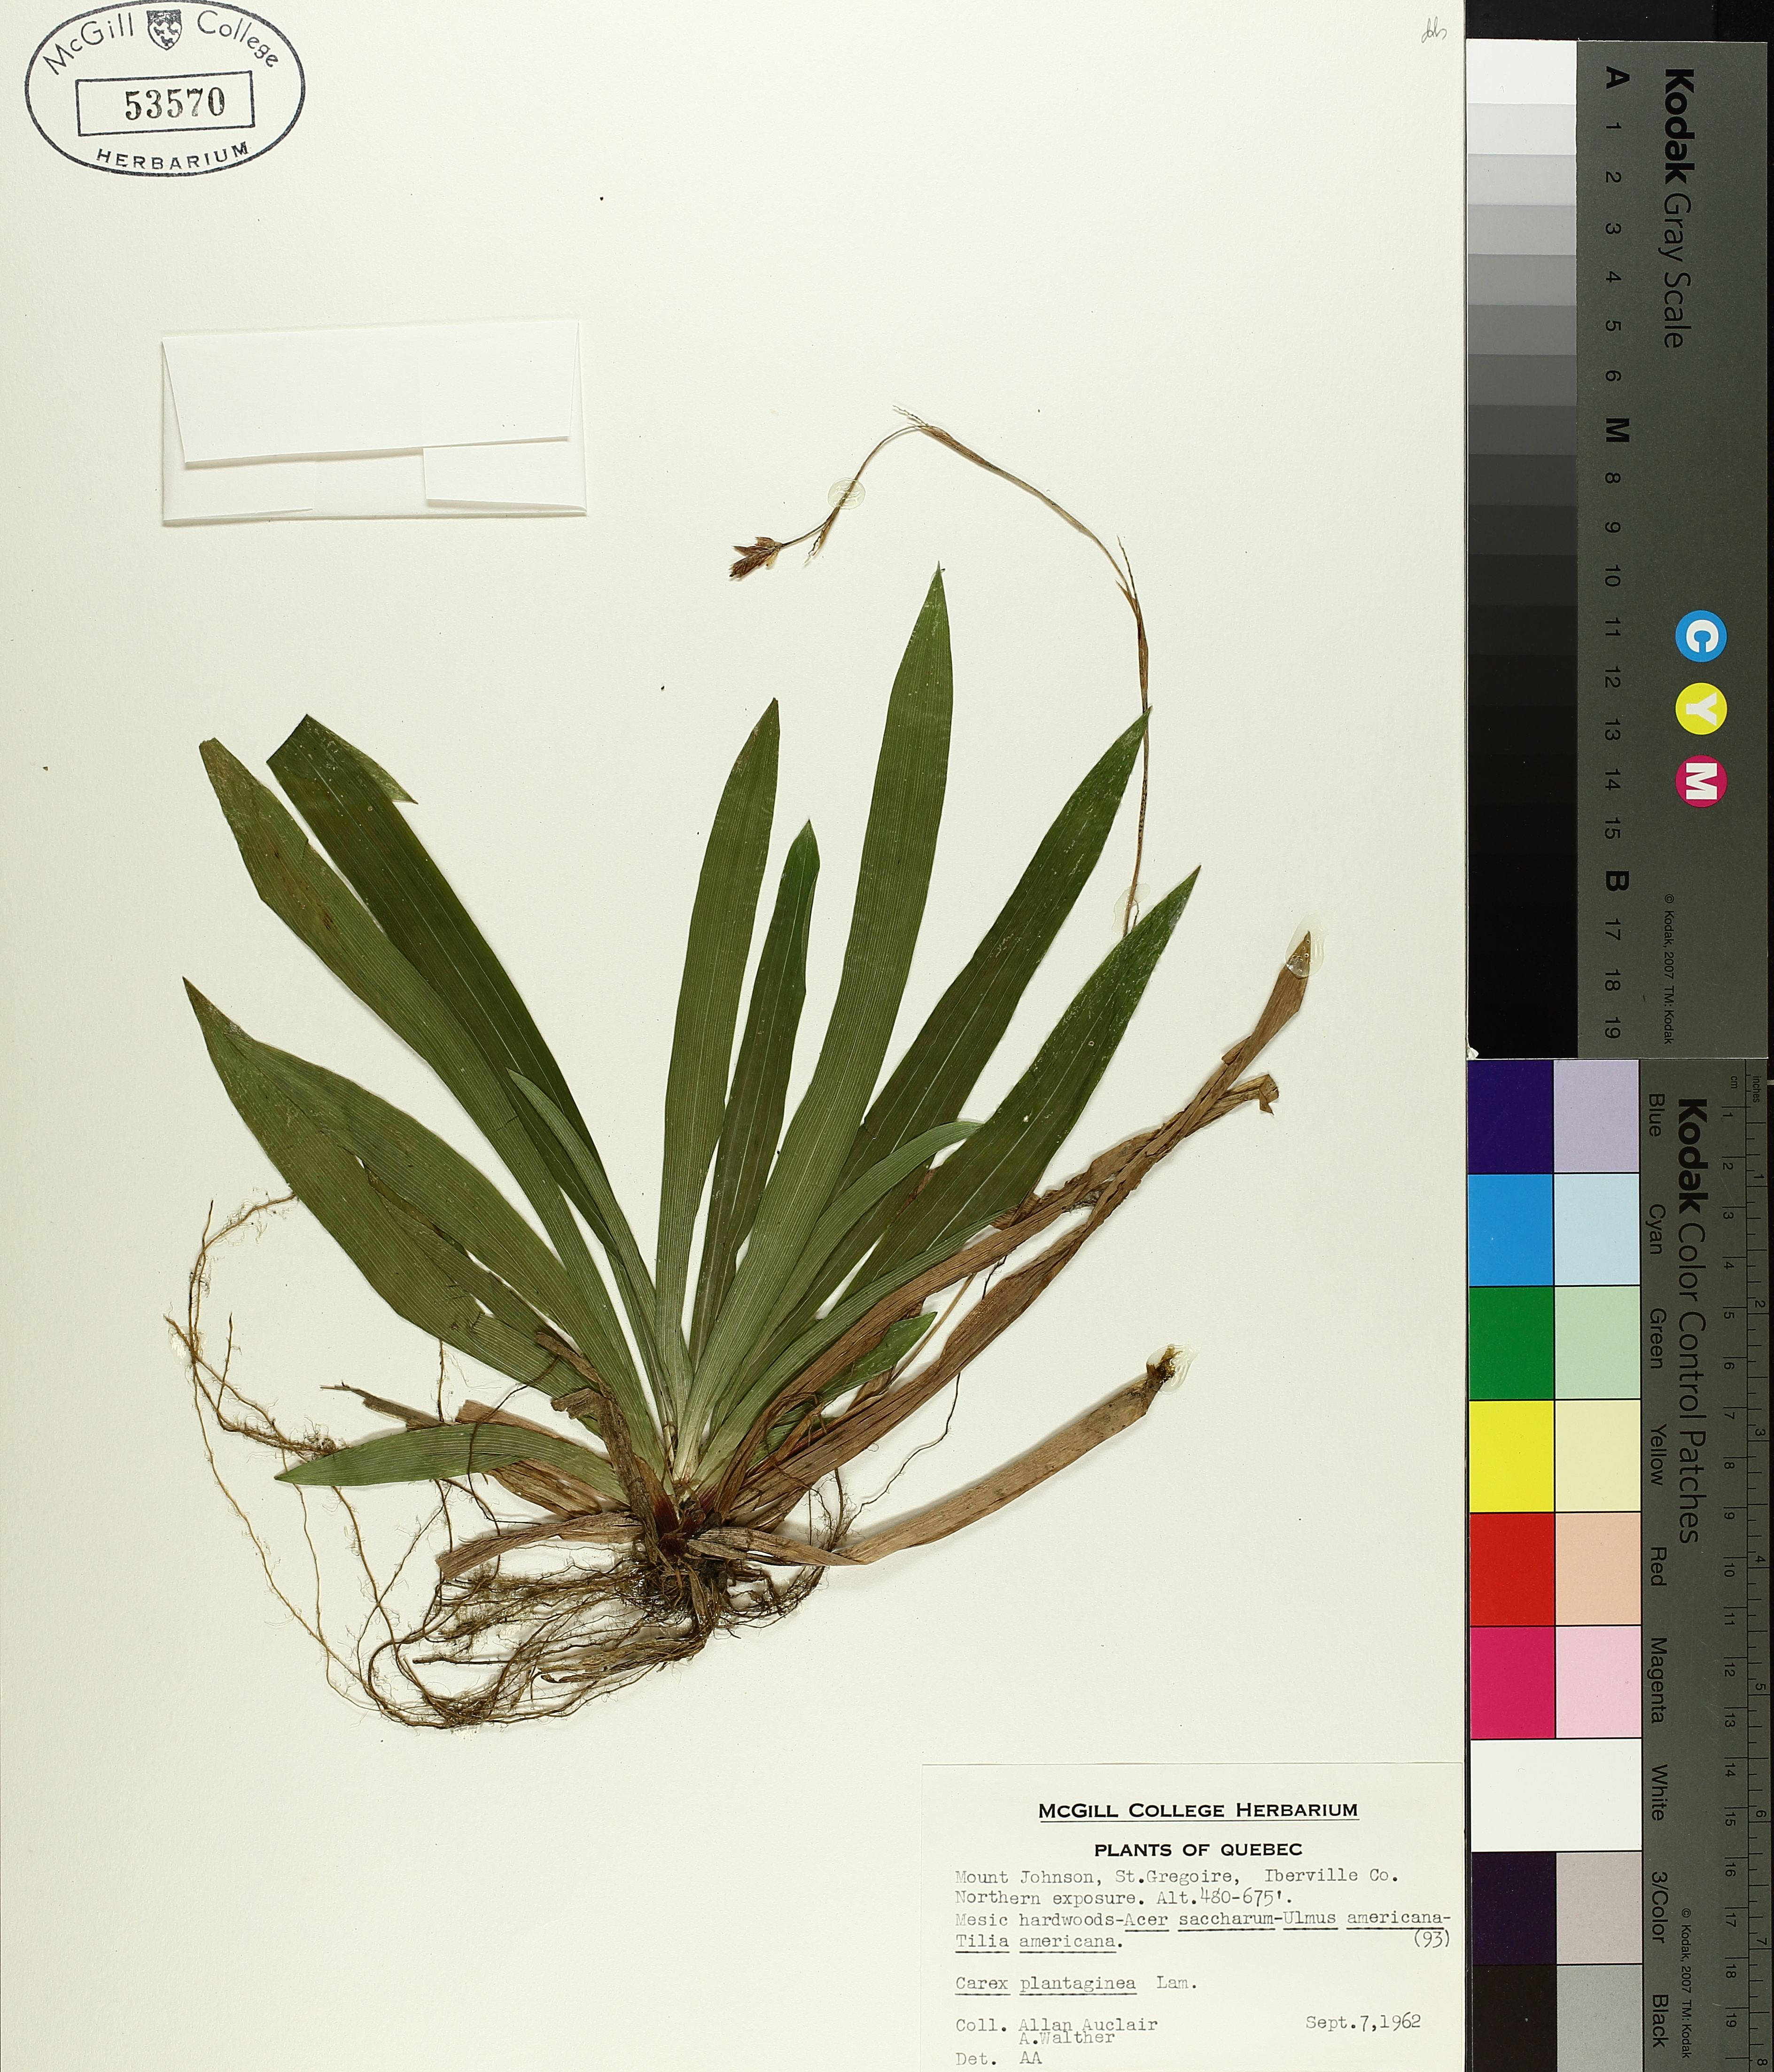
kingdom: Plantae
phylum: Tracheophyta
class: Liliopsida
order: Poales
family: Cyperaceae
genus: Carex
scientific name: Carex plantaginea
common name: Plantain-leaved sedge
